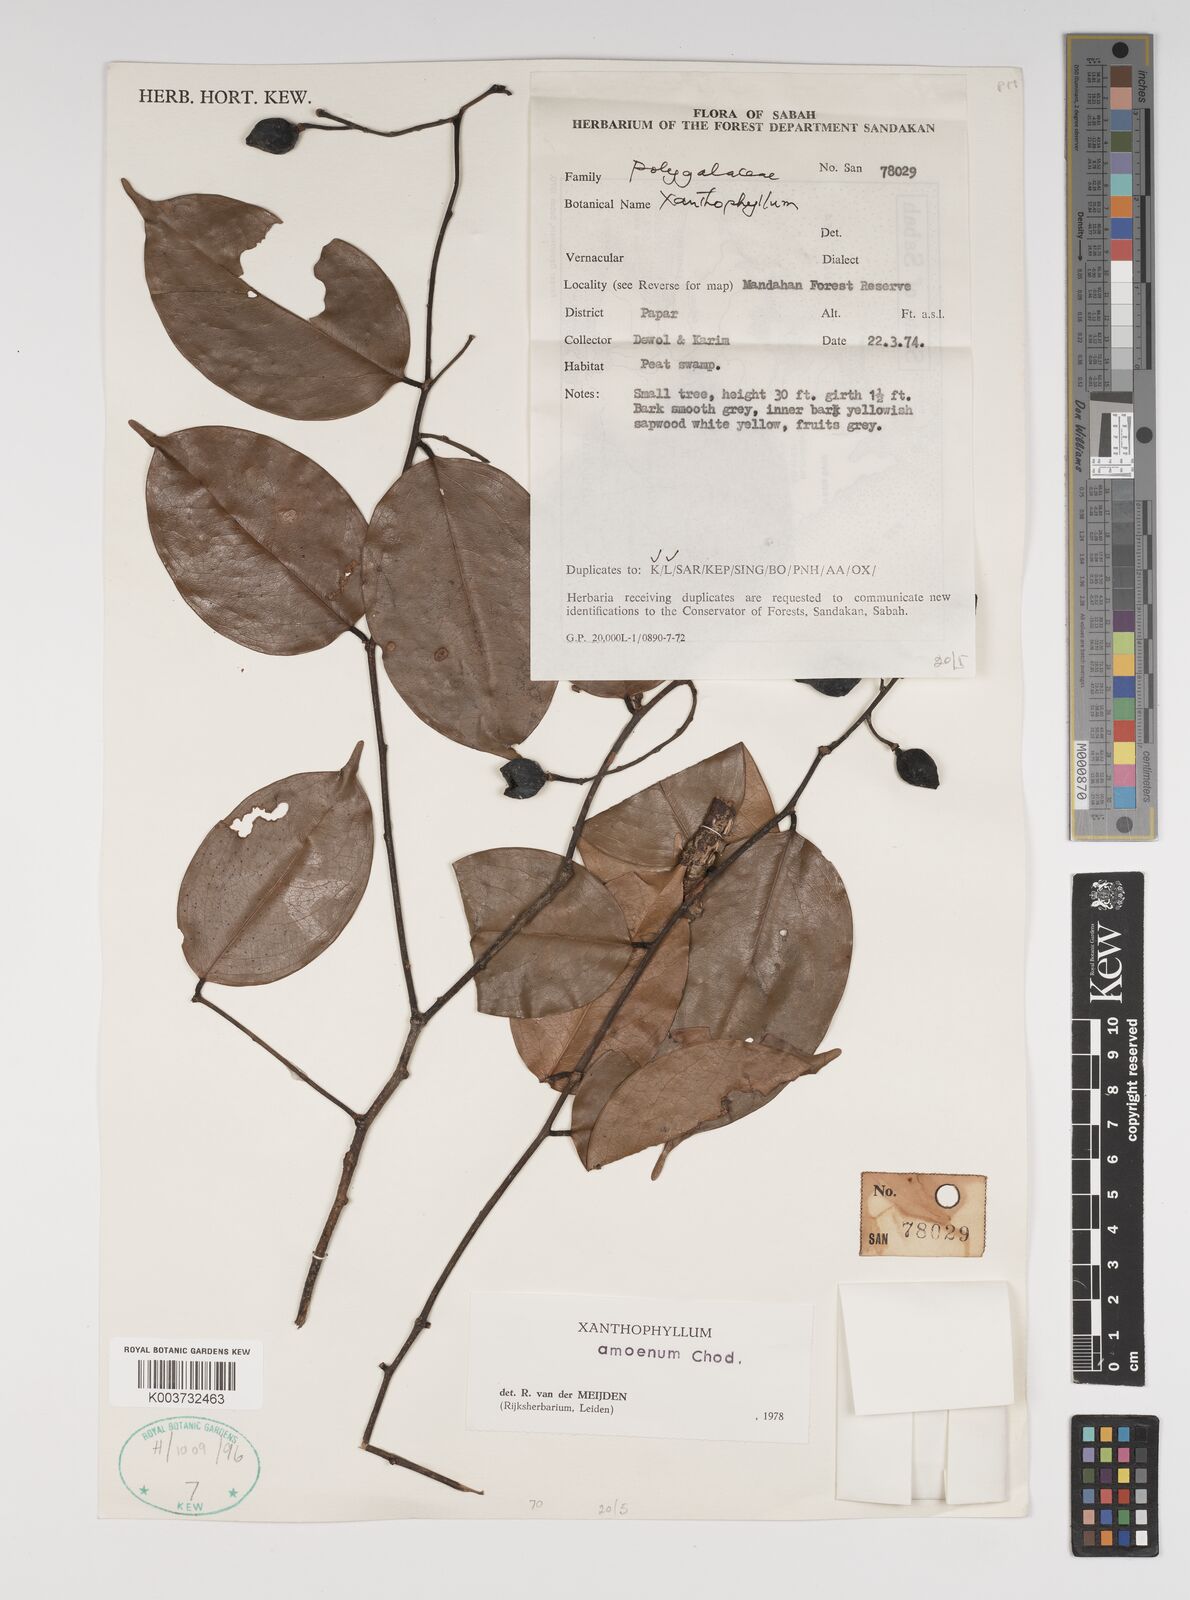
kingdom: Plantae
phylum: Tracheophyta
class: Magnoliopsida
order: Fabales
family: Polygalaceae
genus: Xanthophyllum
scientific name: Xanthophyllum stipitatum
